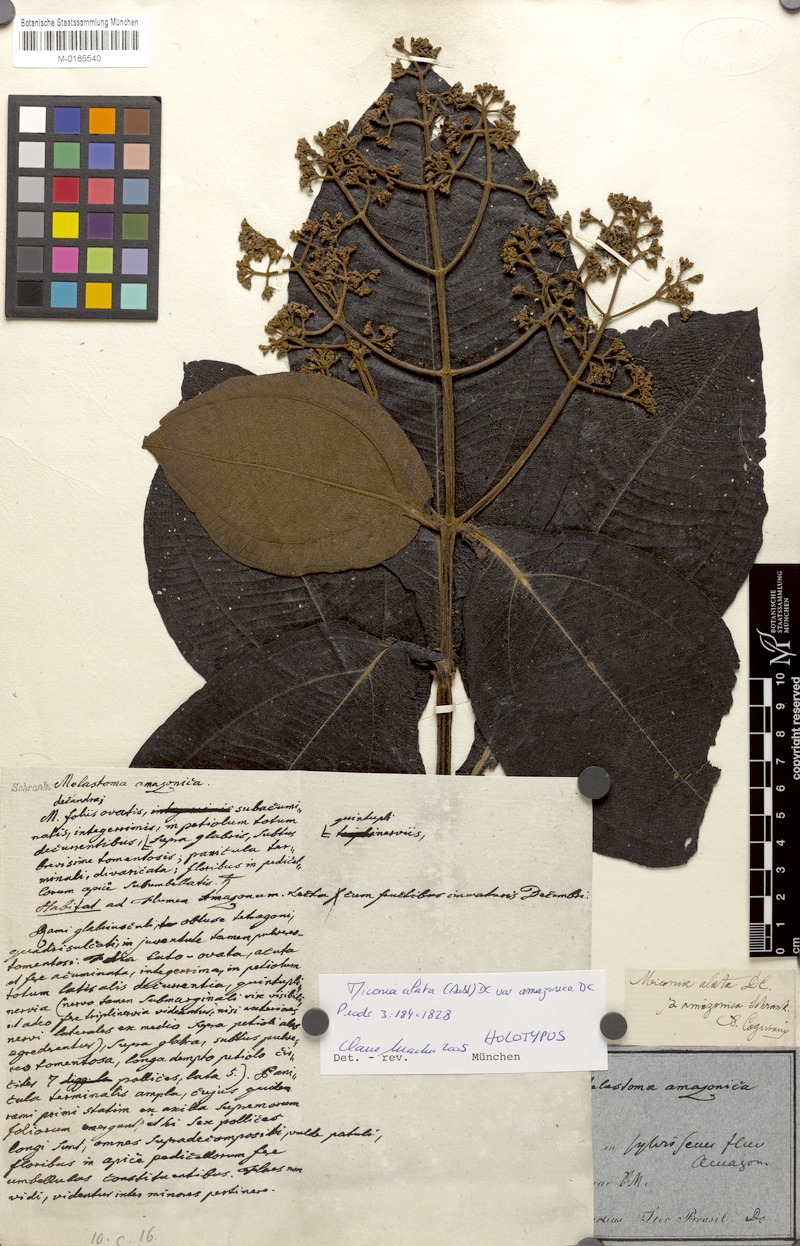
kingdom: Plantae
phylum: Tracheophyta
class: Magnoliopsida
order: Myrtales
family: Melastomataceae
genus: Miconia
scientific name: Miconia alata
